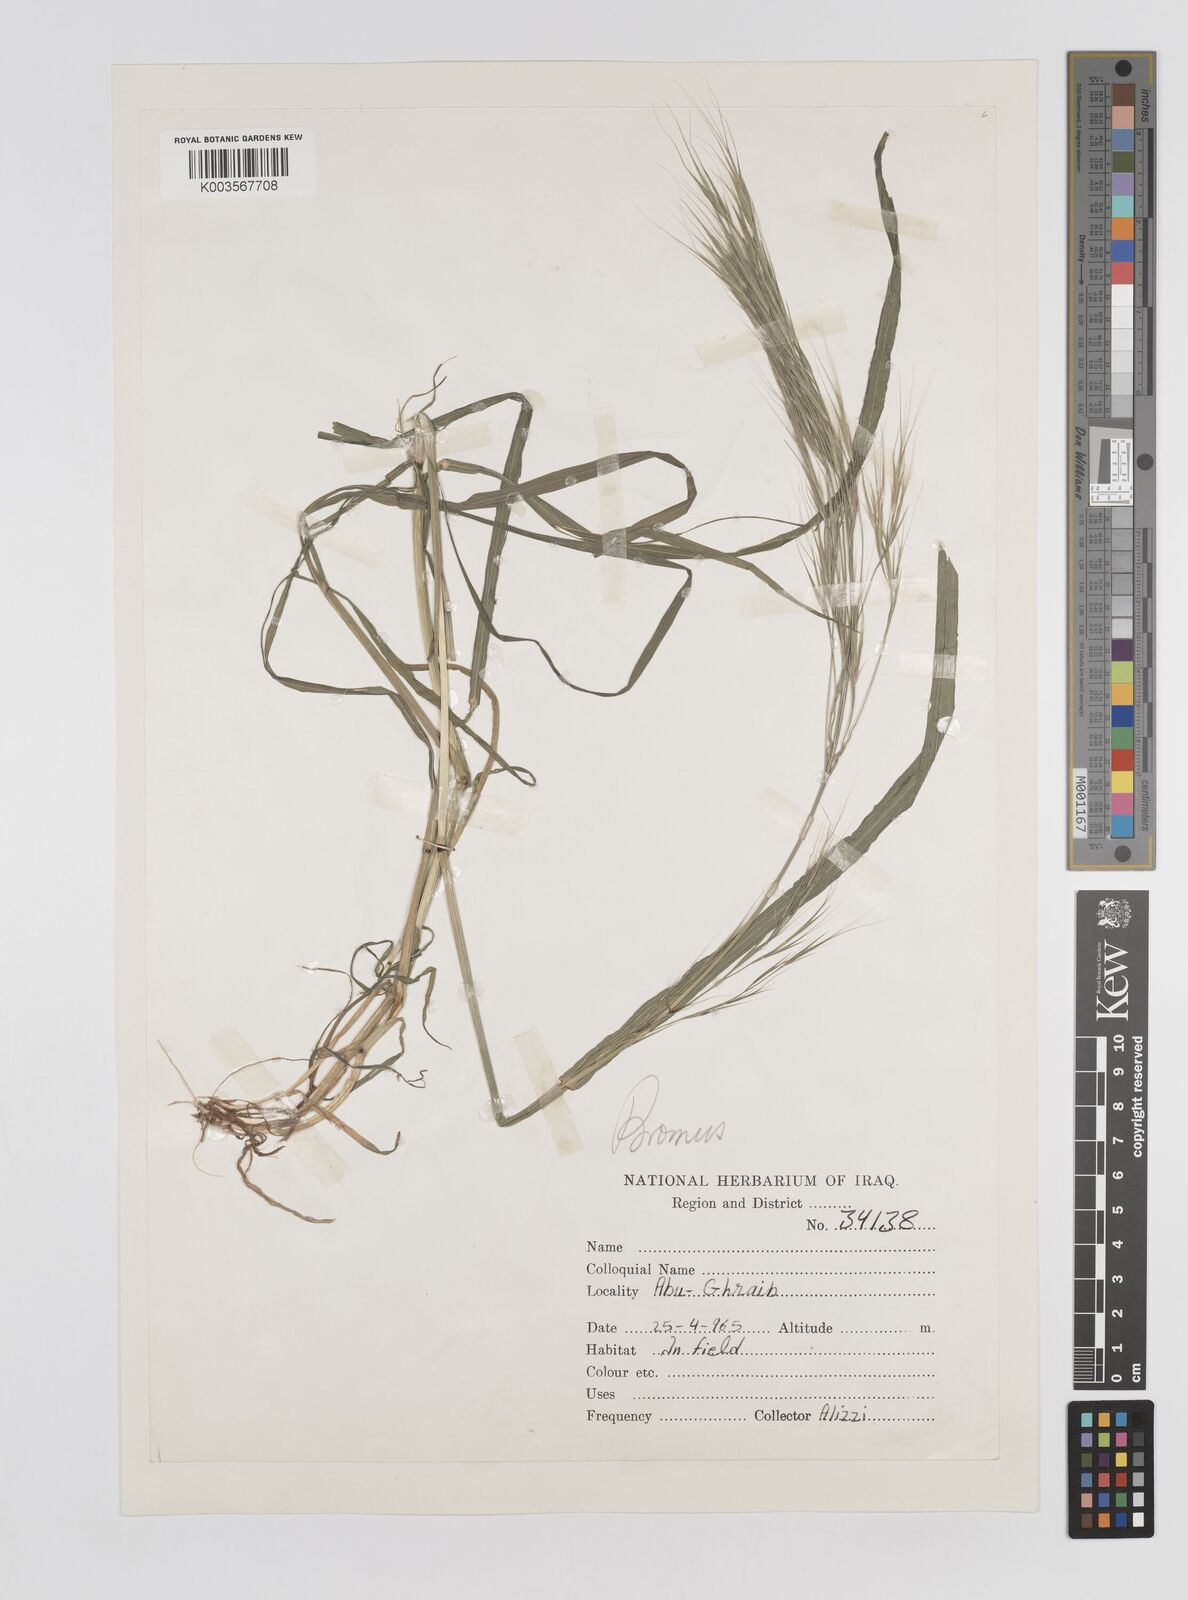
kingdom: Plantae
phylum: Tracheophyta
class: Liliopsida
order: Poales
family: Poaceae
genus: Bromus
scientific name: Bromus
